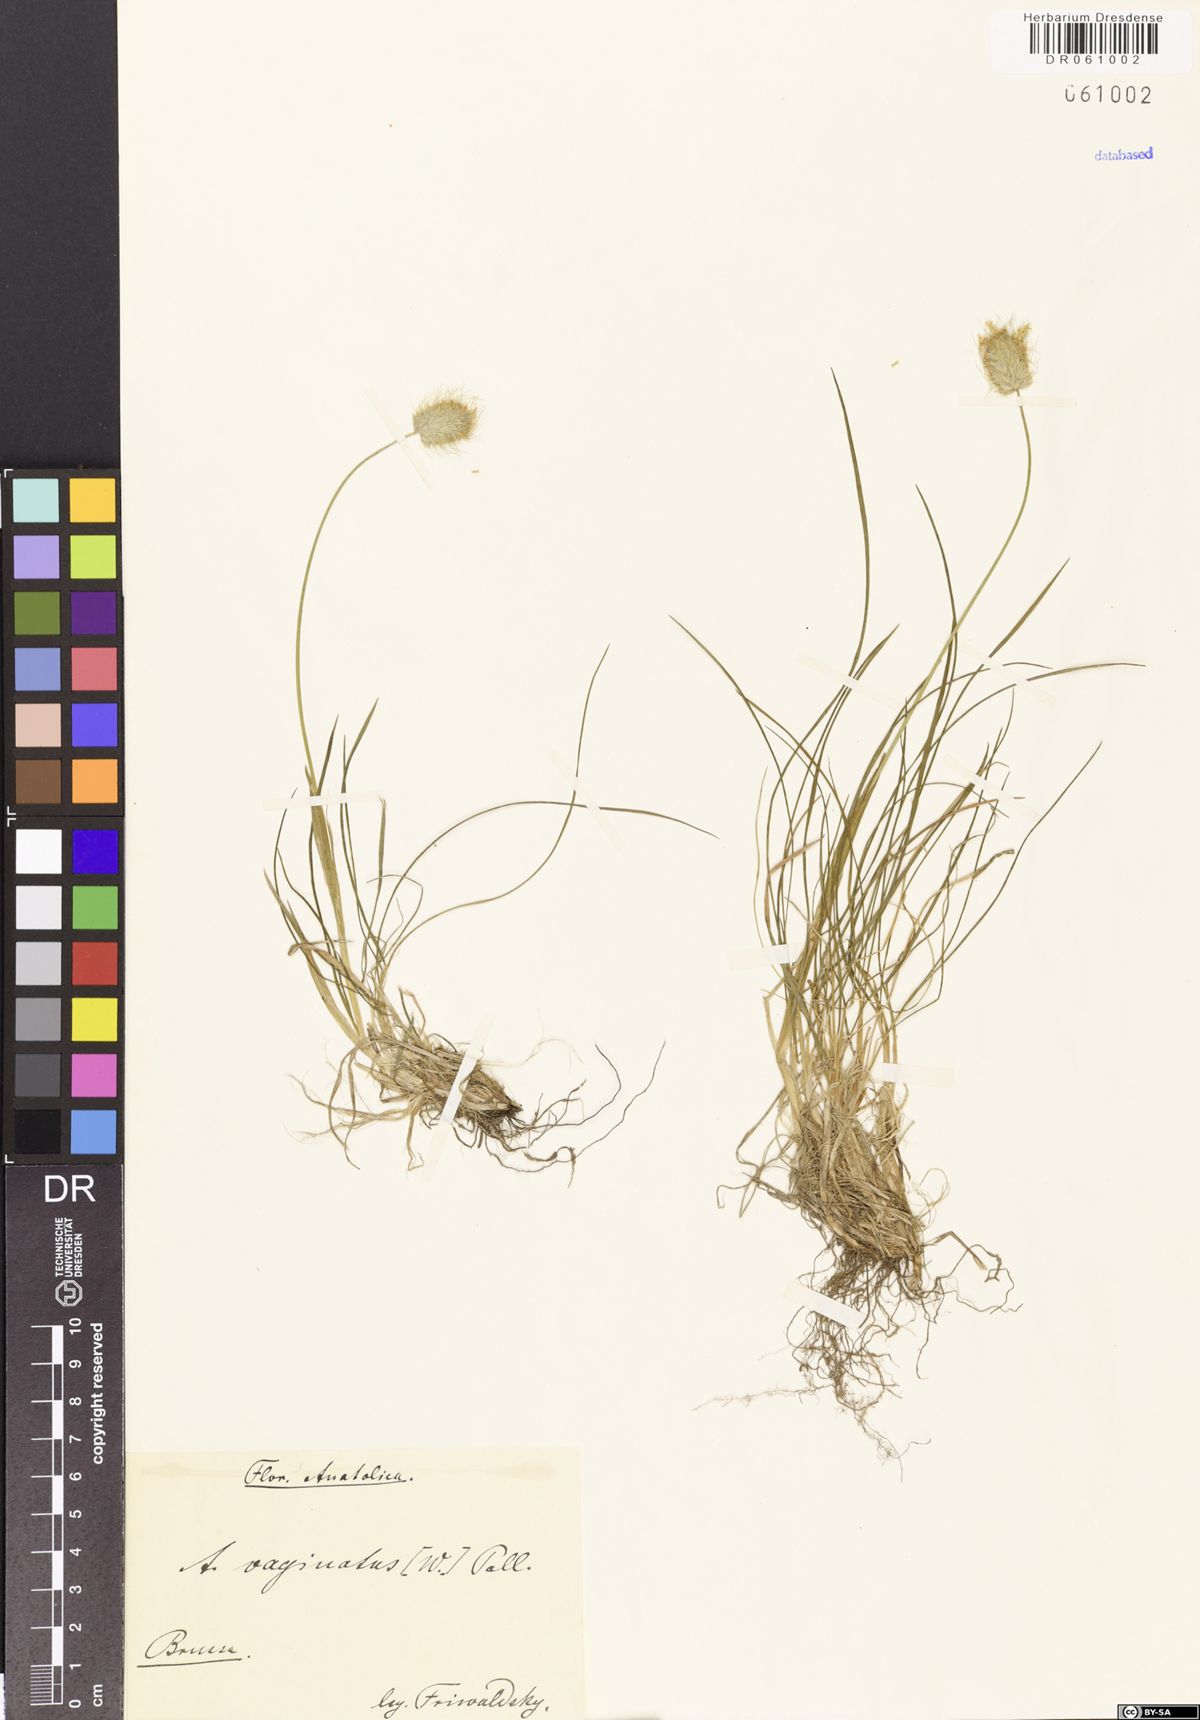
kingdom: Plantae
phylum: Tracheophyta
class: Liliopsida
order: Poales
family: Poaceae
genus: Alopecurus
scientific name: Alopecurus vaginatus
